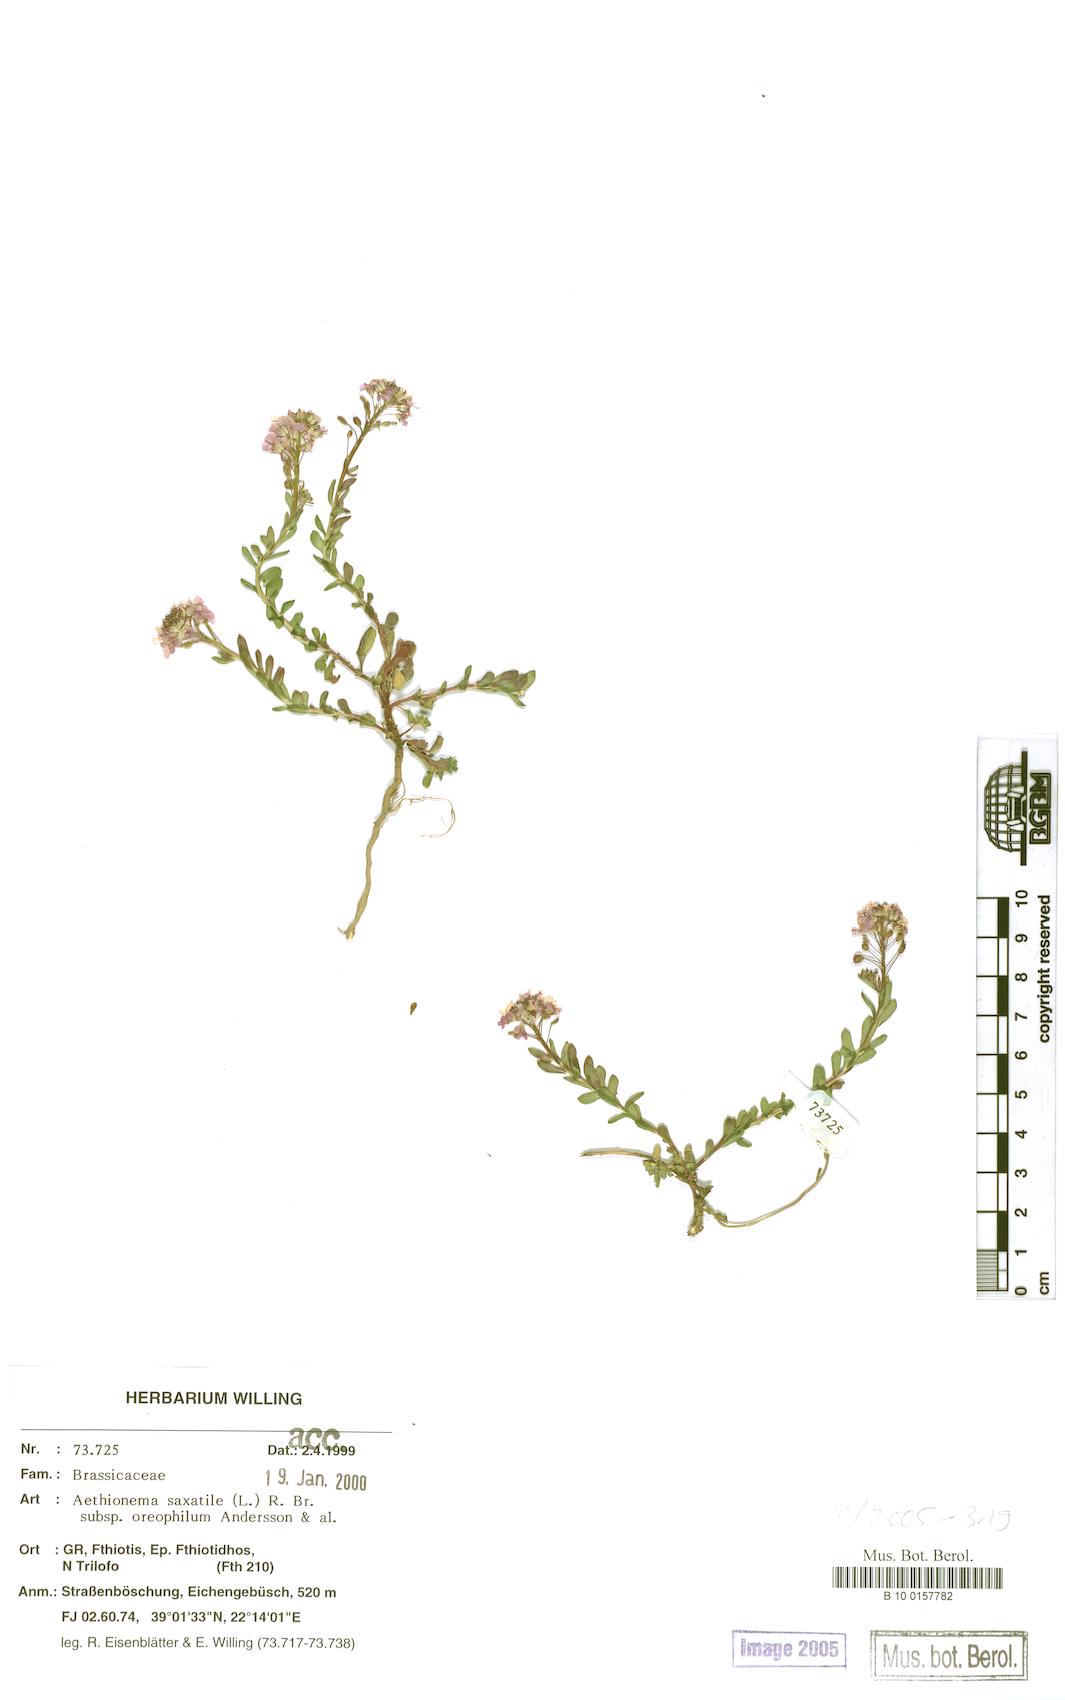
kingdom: Plantae
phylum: Tracheophyta
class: Magnoliopsida
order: Brassicales
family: Brassicaceae
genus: Aethionema
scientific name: Aethionema saxatile
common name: Burnt candytuft
